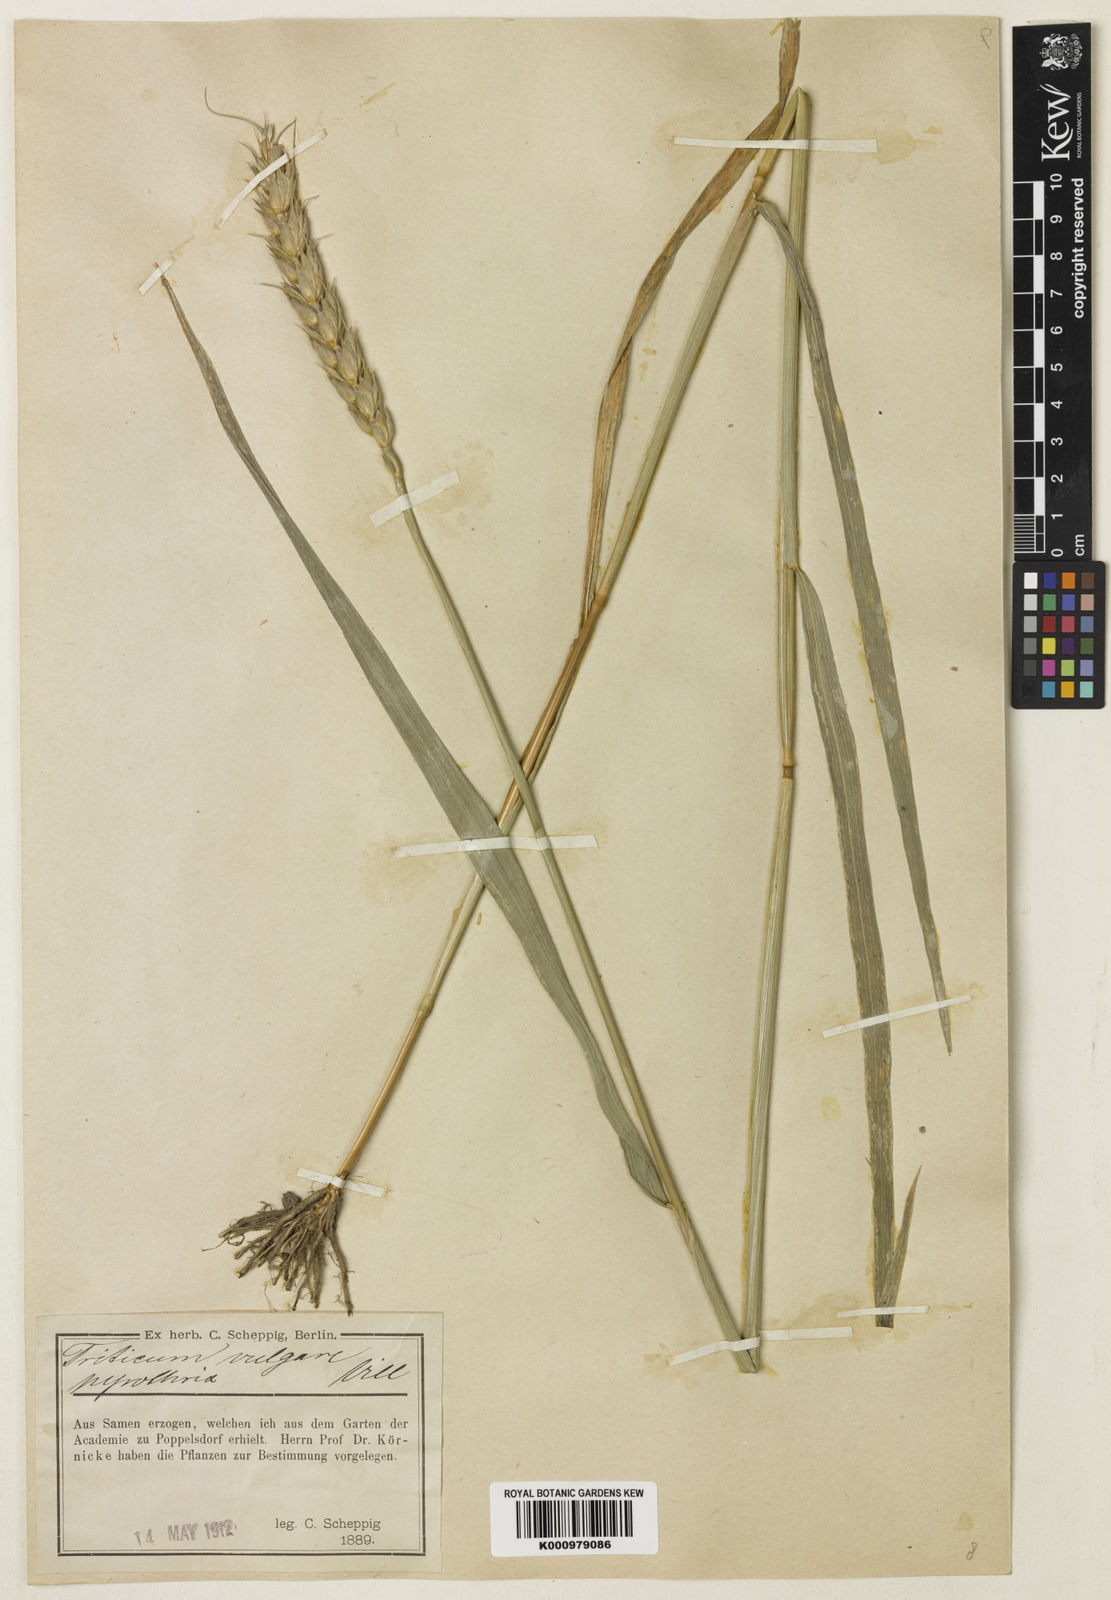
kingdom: Plantae
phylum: Tracheophyta
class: Liliopsida
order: Poales
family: Poaceae
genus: Triticum
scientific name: Triticum aestivum
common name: Common wheat
